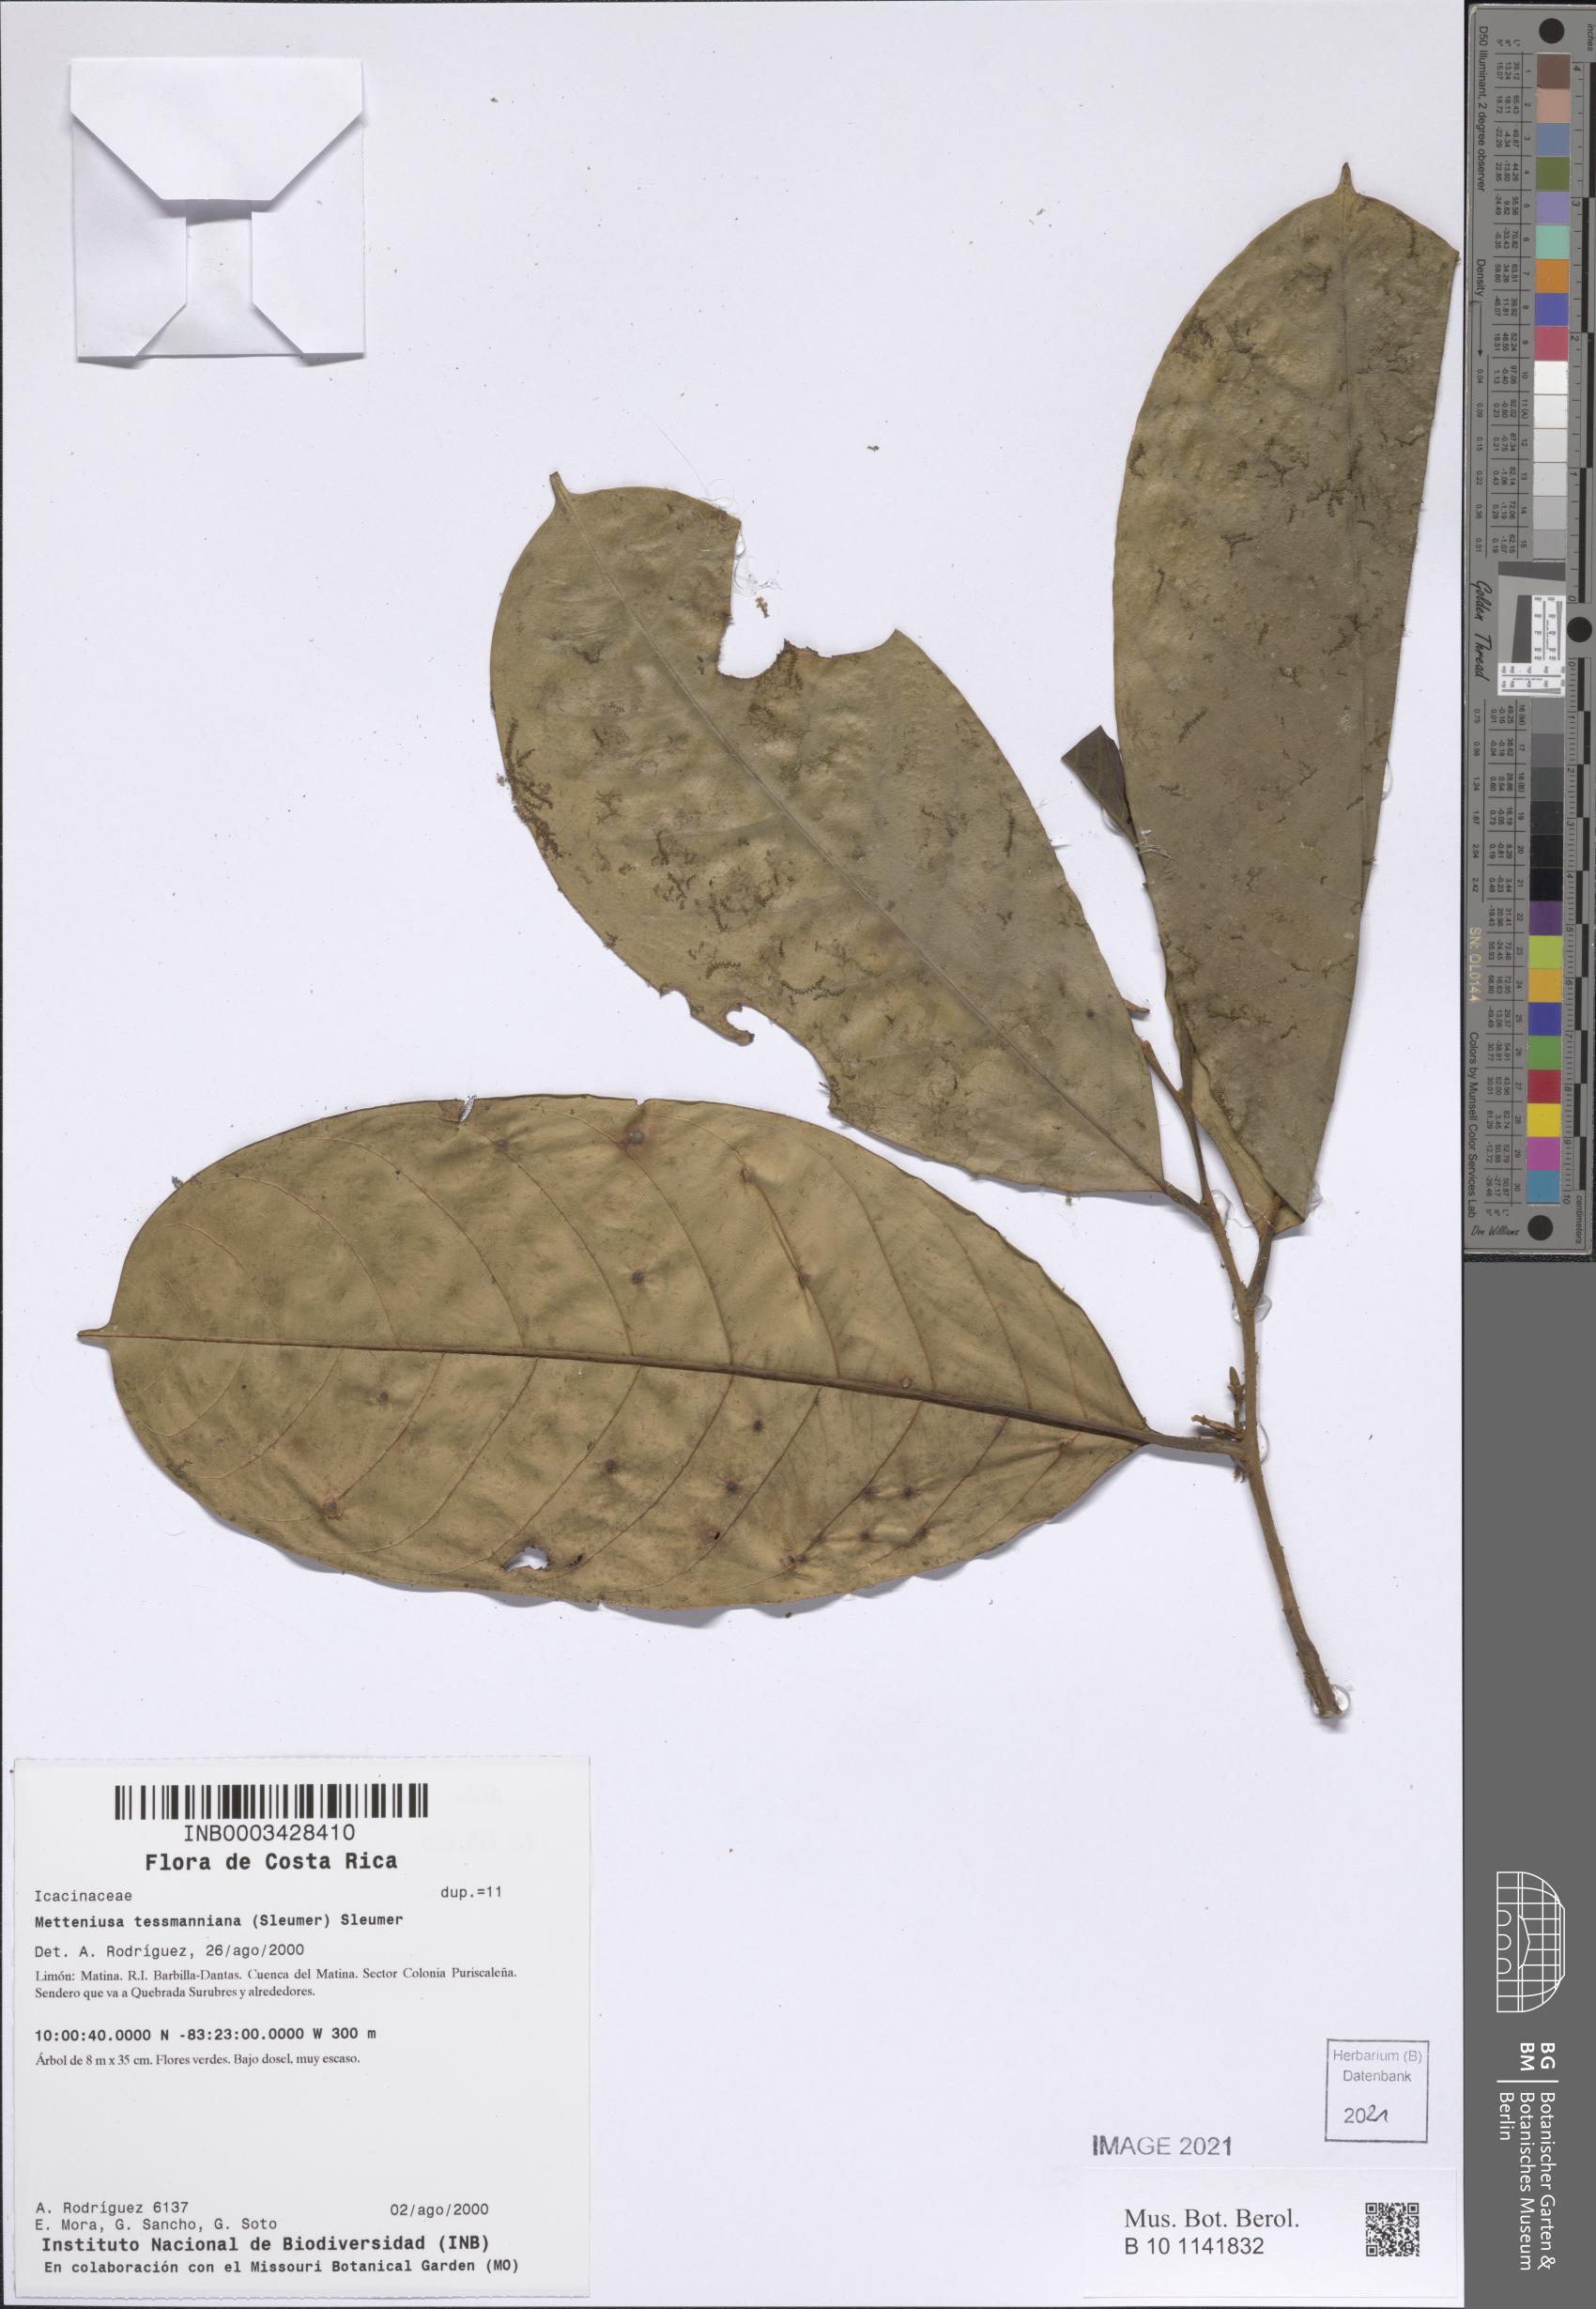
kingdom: Plantae
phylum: Tracheophyta
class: Magnoliopsida
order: Metteniusales
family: Metteniusaceae
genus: Metteniusa
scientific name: Metteniusa tessmanniana
